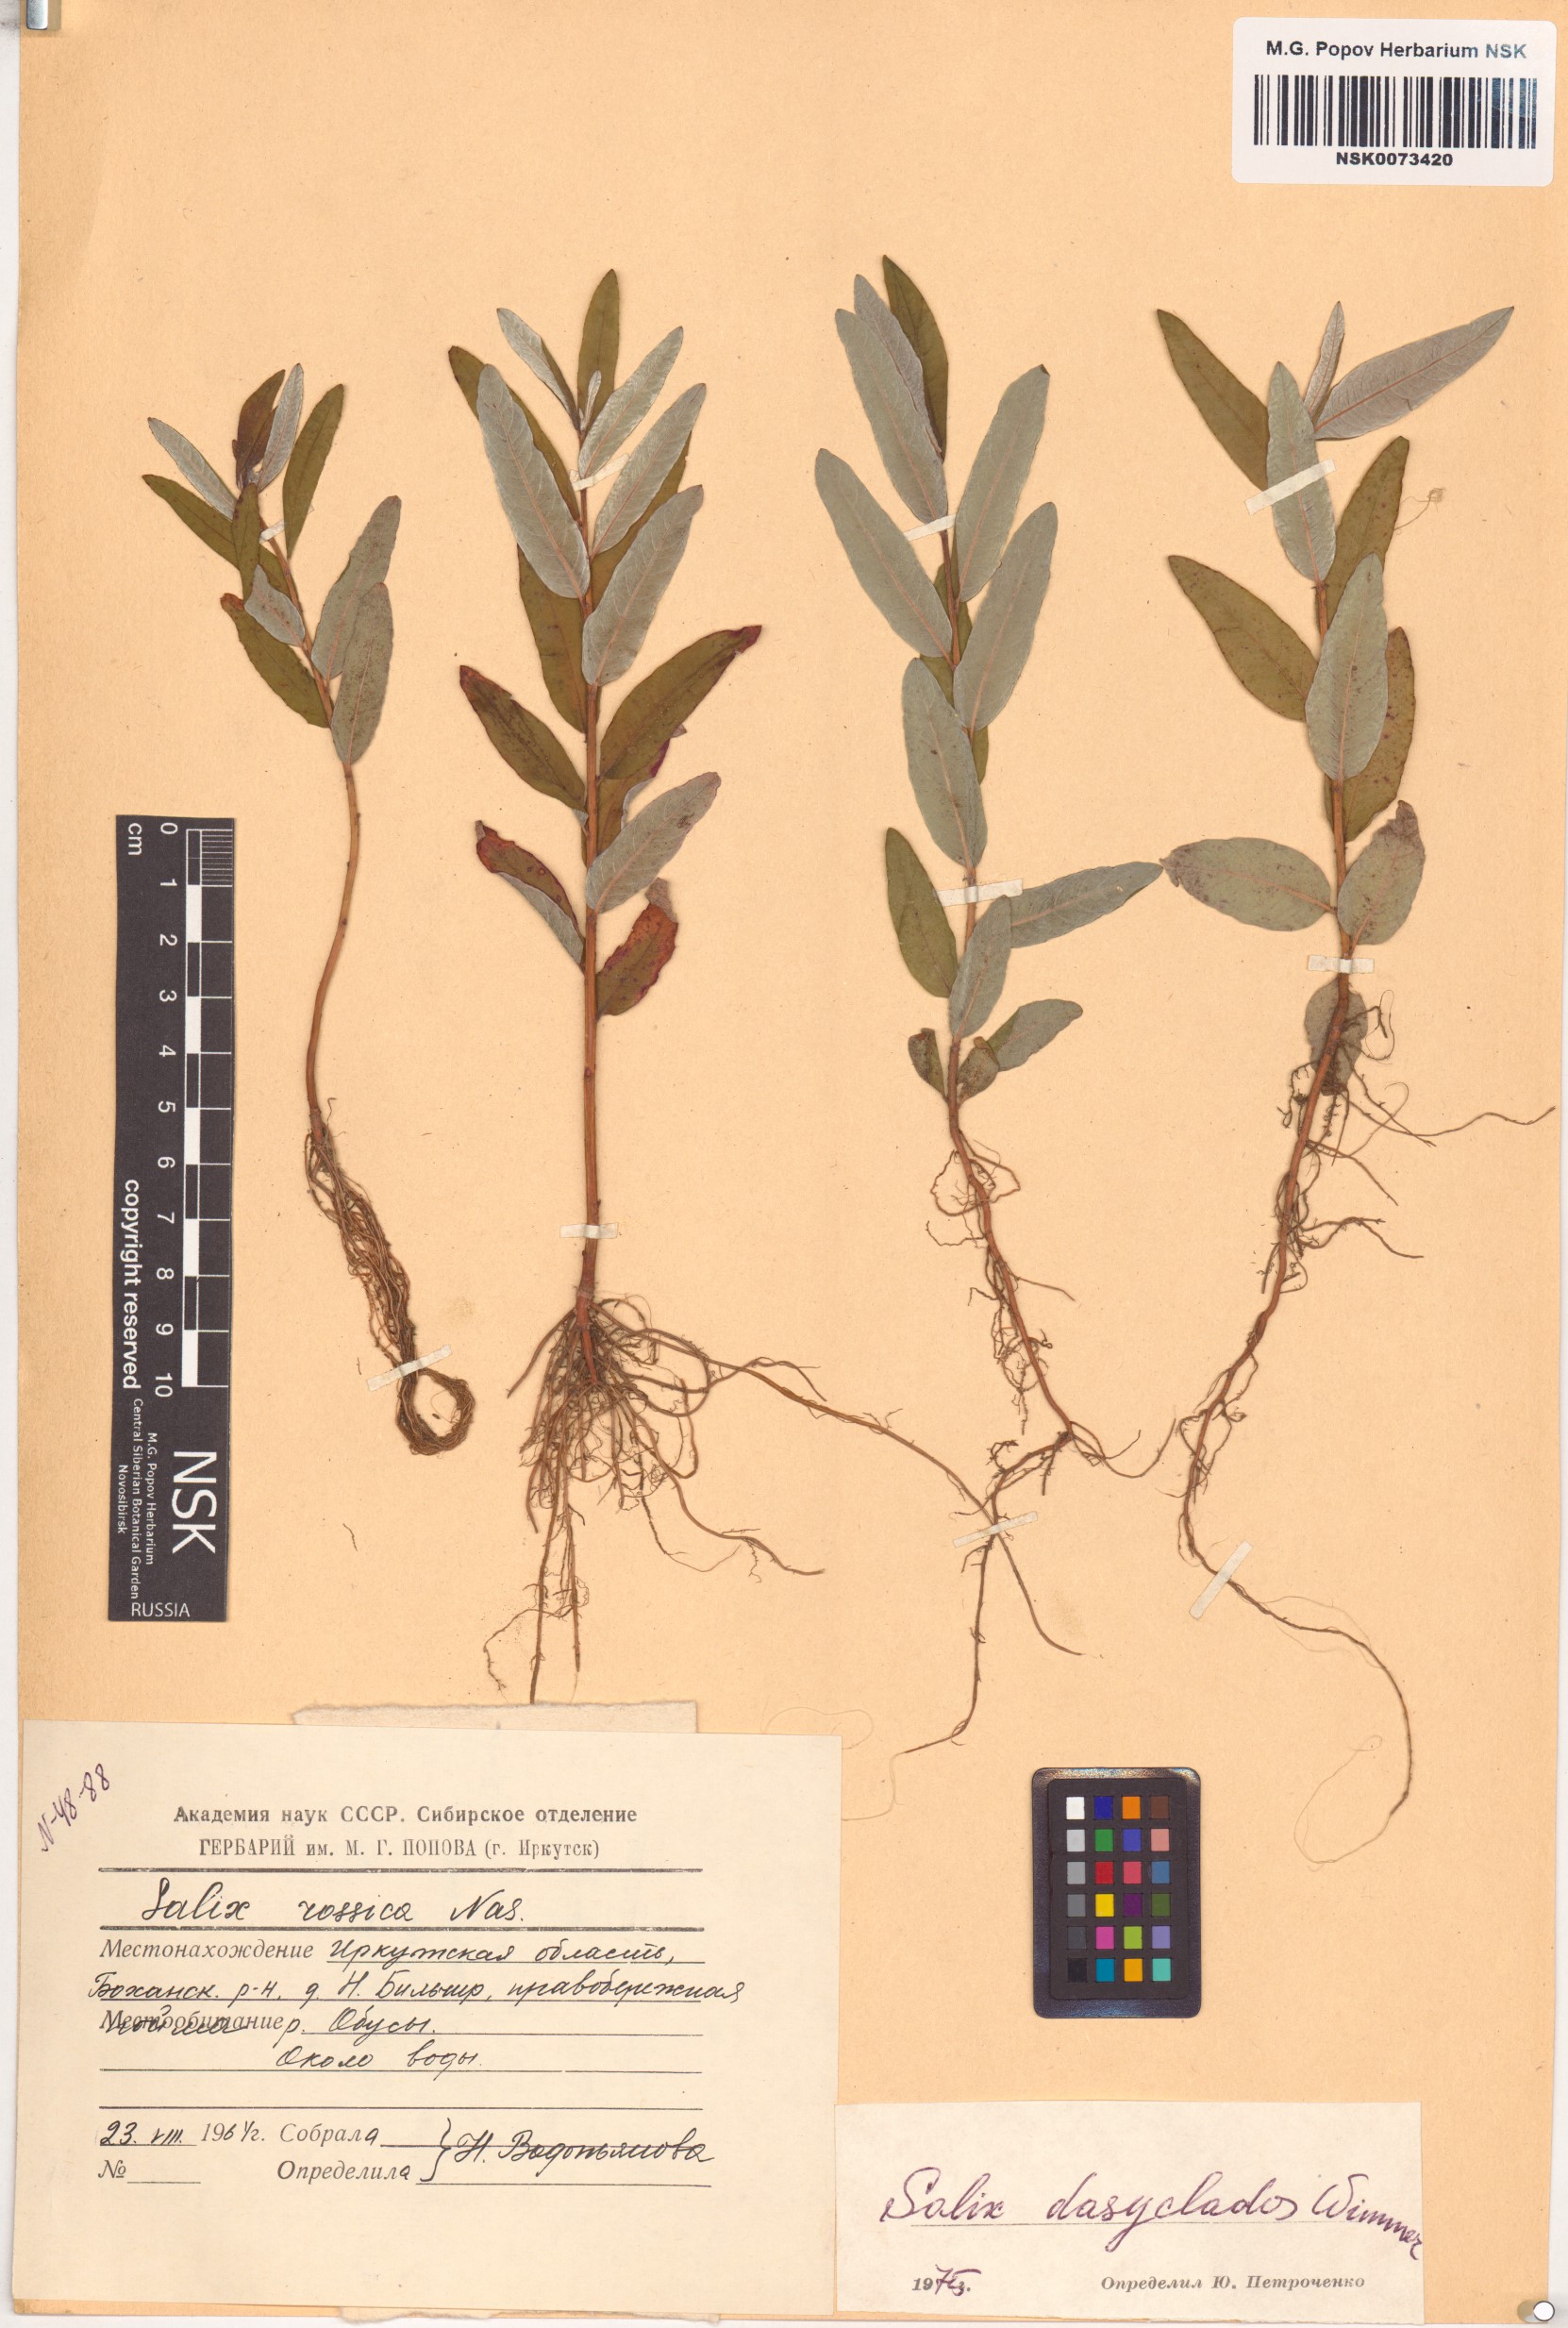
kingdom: Plantae
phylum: Tracheophyta
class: Magnoliopsida
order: Malpighiales
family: Salicaceae
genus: Salix
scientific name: Salix gmelinii
